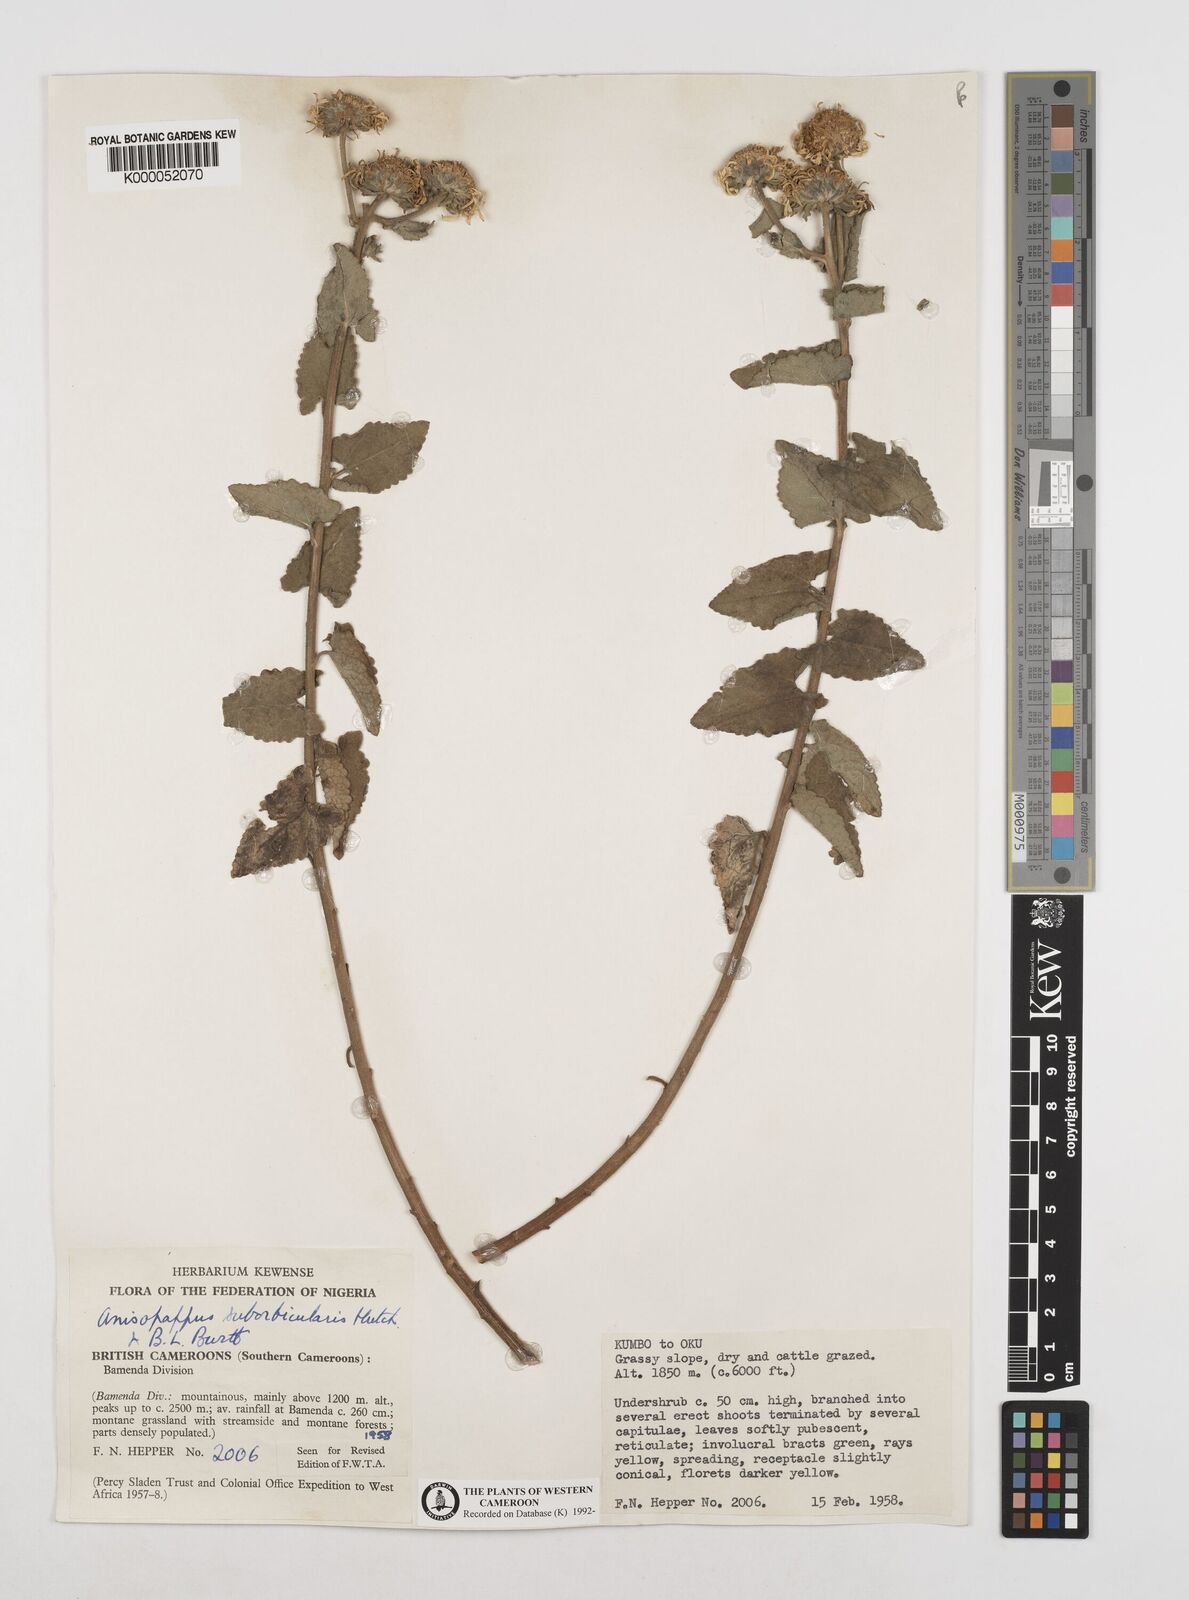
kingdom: Plantae
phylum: Tracheophyta
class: Magnoliopsida
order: Asterales
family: Asteraceae
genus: Anisopappus
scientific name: Anisopappus africanus
